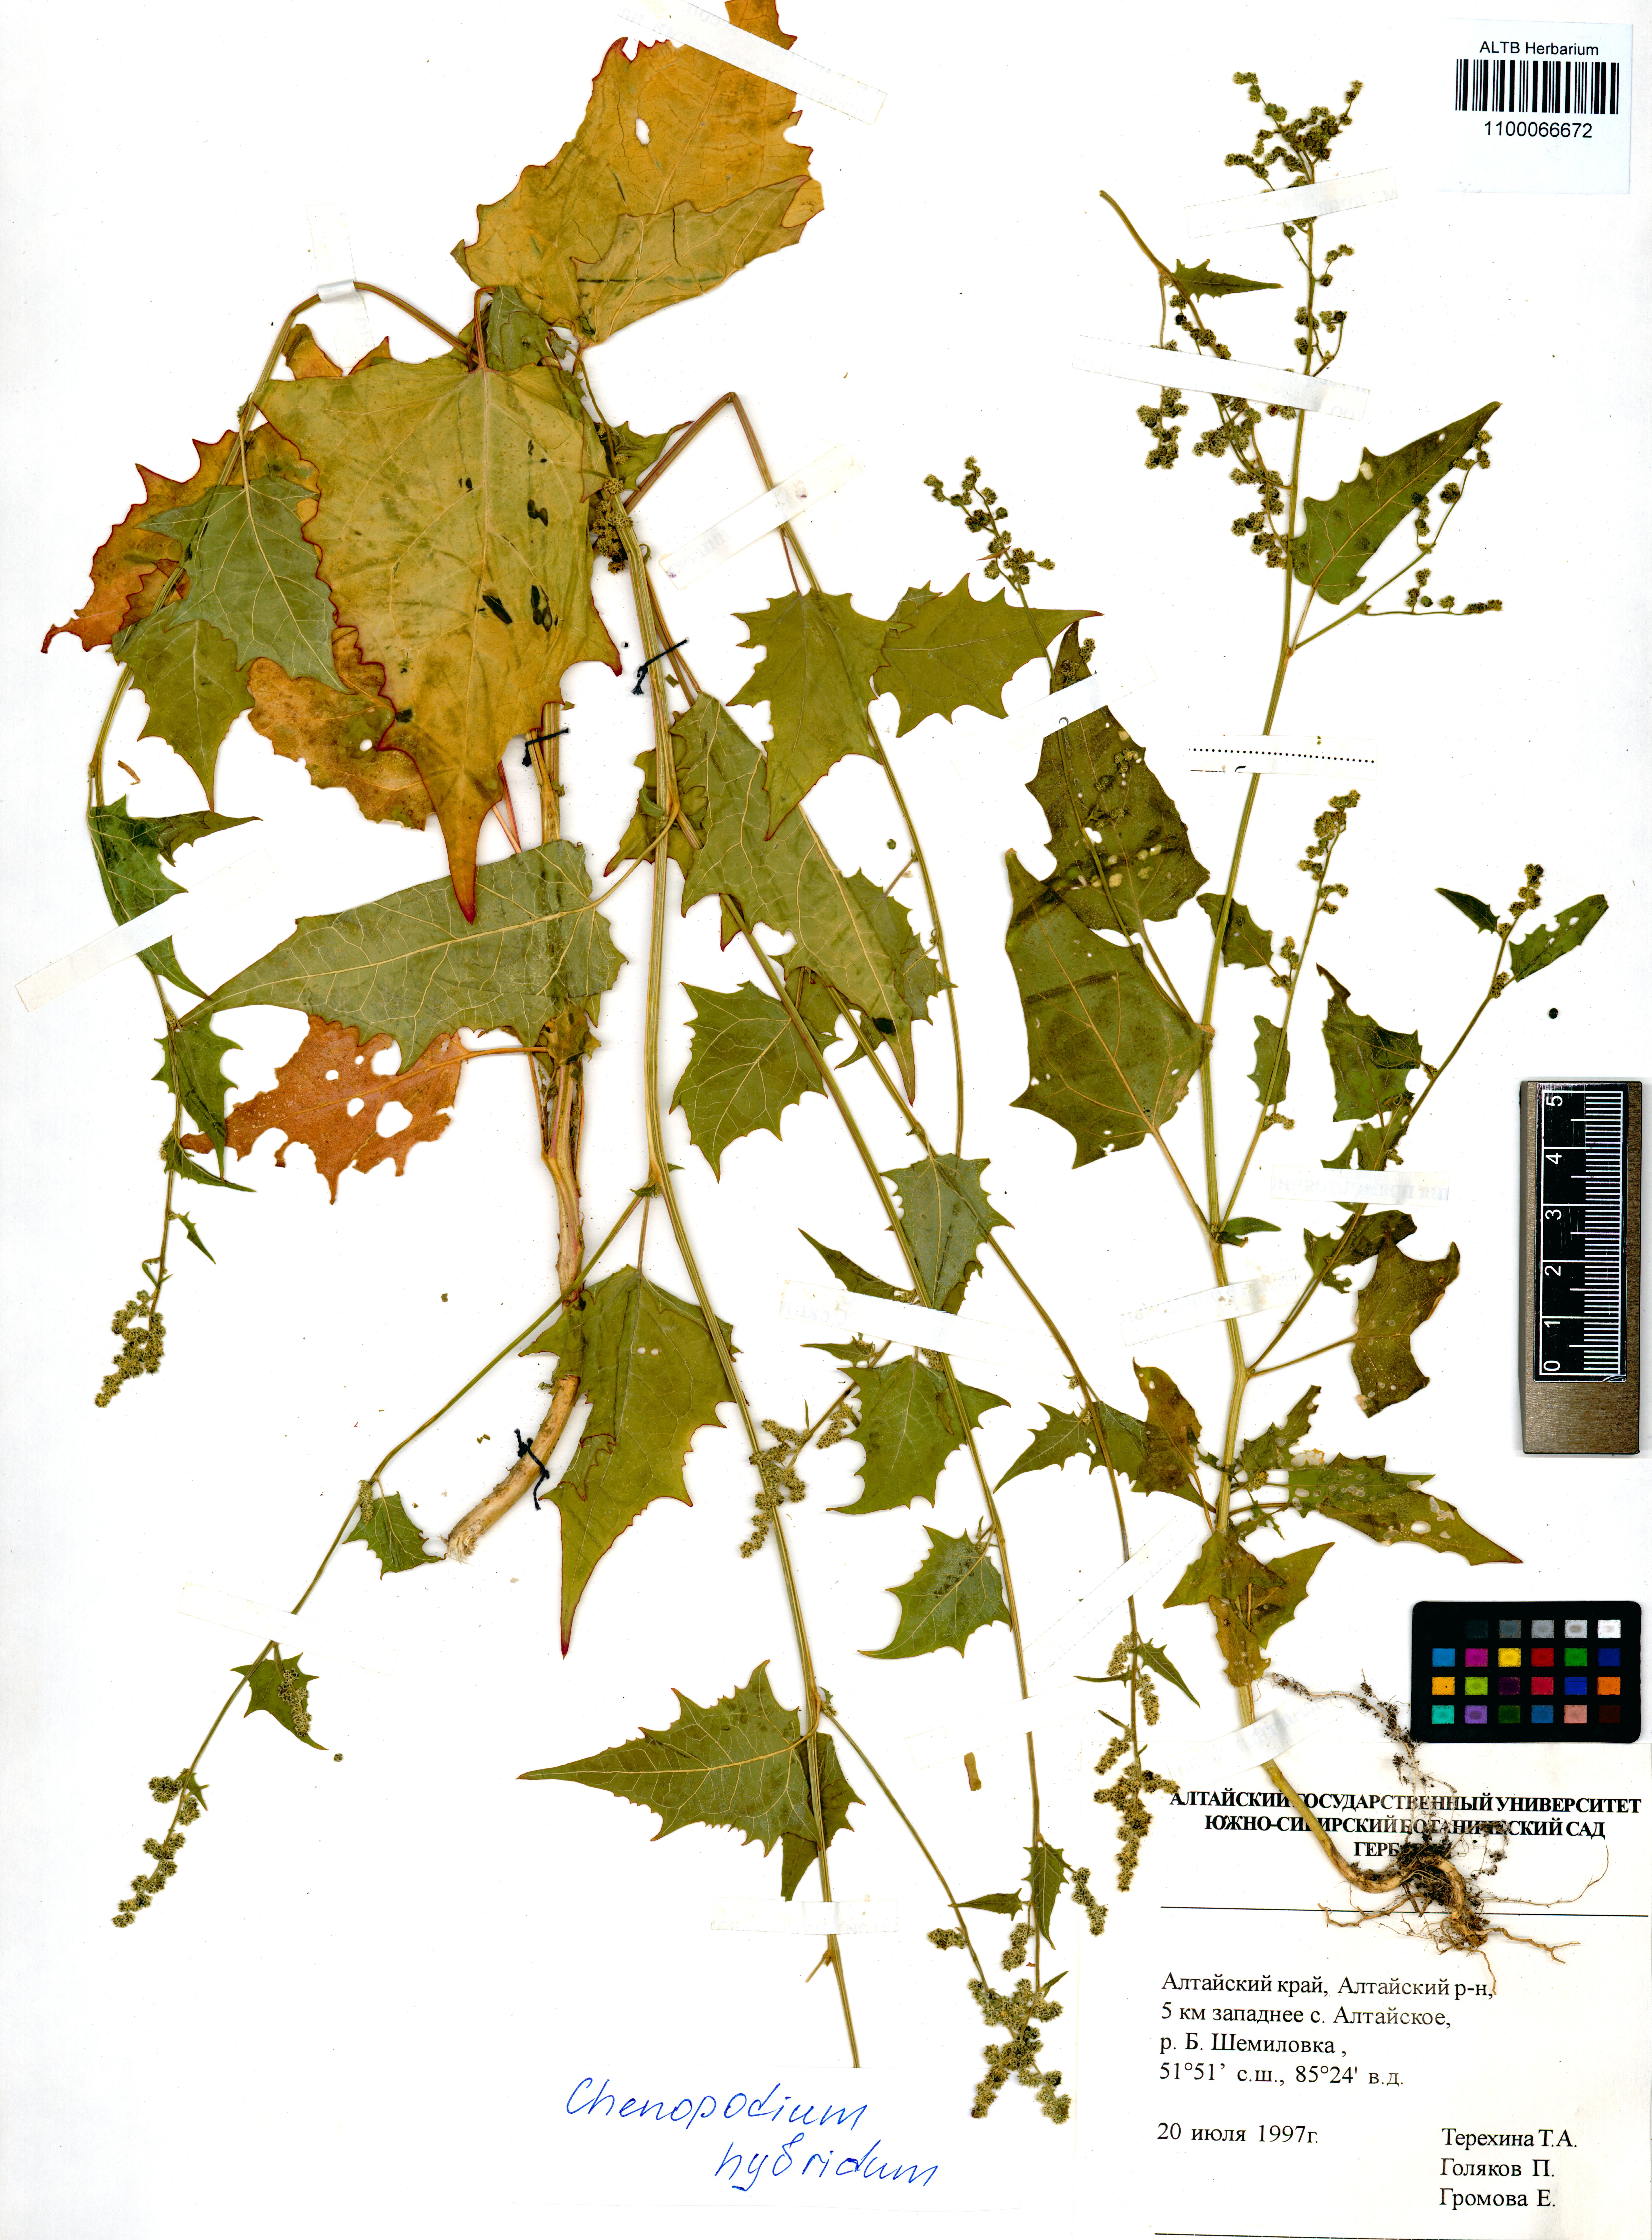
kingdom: Plantae
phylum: Tracheophyta
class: Magnoliopsida
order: Caryophyllales
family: Amaranthaceae
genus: Chenopodiastrum
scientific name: Chenopodiastrum hybridum
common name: Mapleleaf goosefoot
